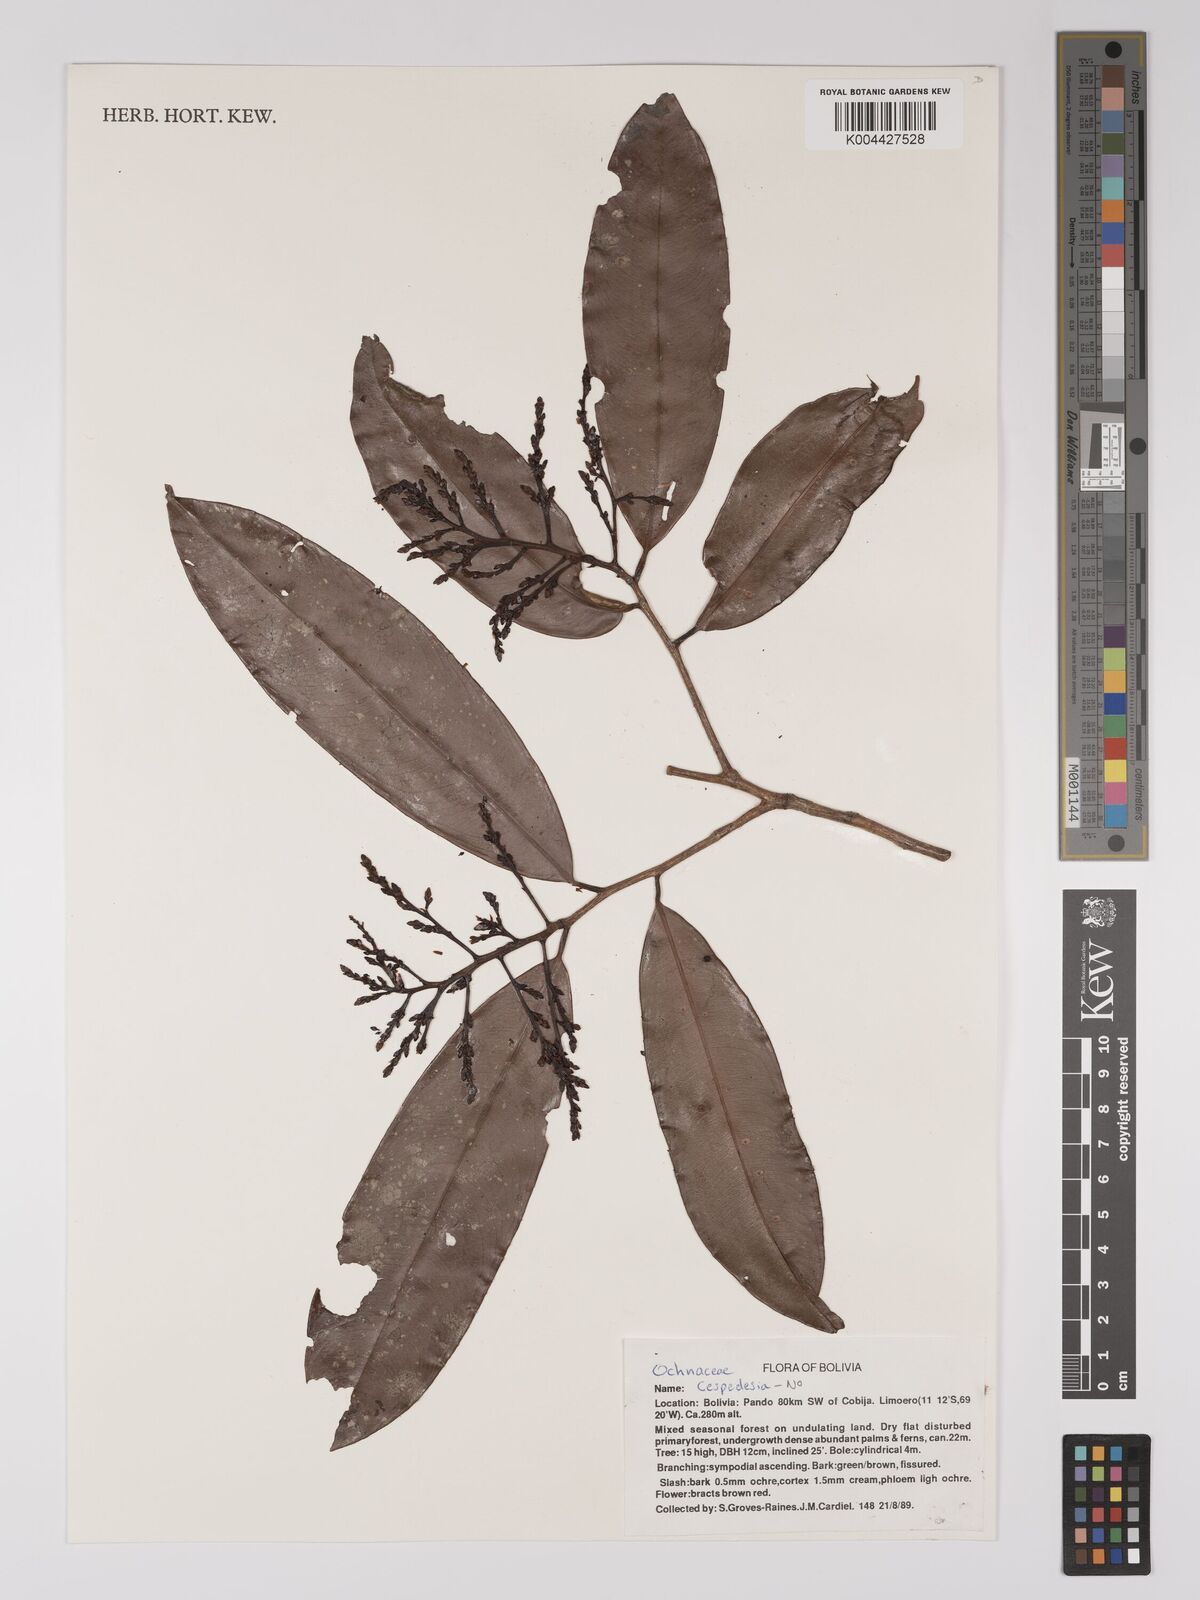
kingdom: Plantae
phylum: Tracheophyta
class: Magnoliopsida
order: Malpighiales
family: Ochnaceae
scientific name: Ochnaceae
